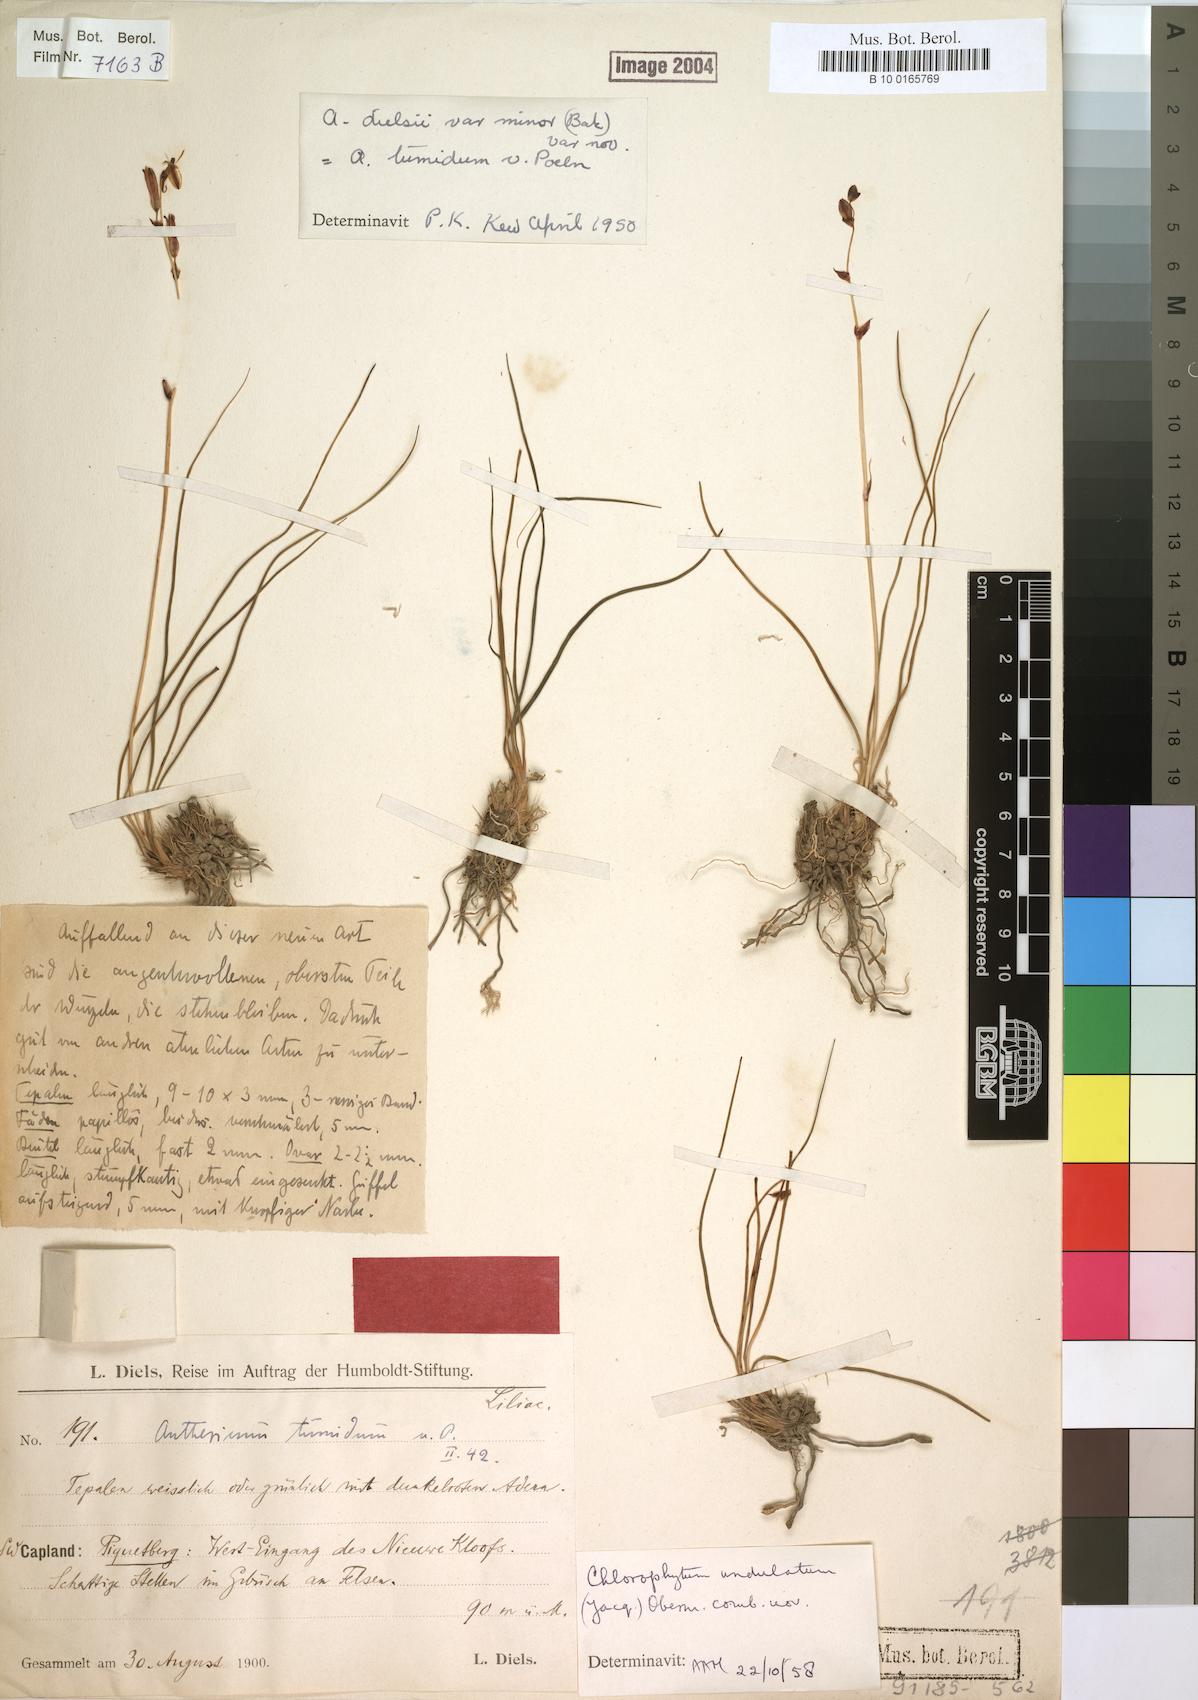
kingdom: Plantae
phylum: Tracheophyta
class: Liliopsida
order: Asparagales
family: Asparagaceae
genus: Chlorophytum
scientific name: Chlorophytum graminifolium
